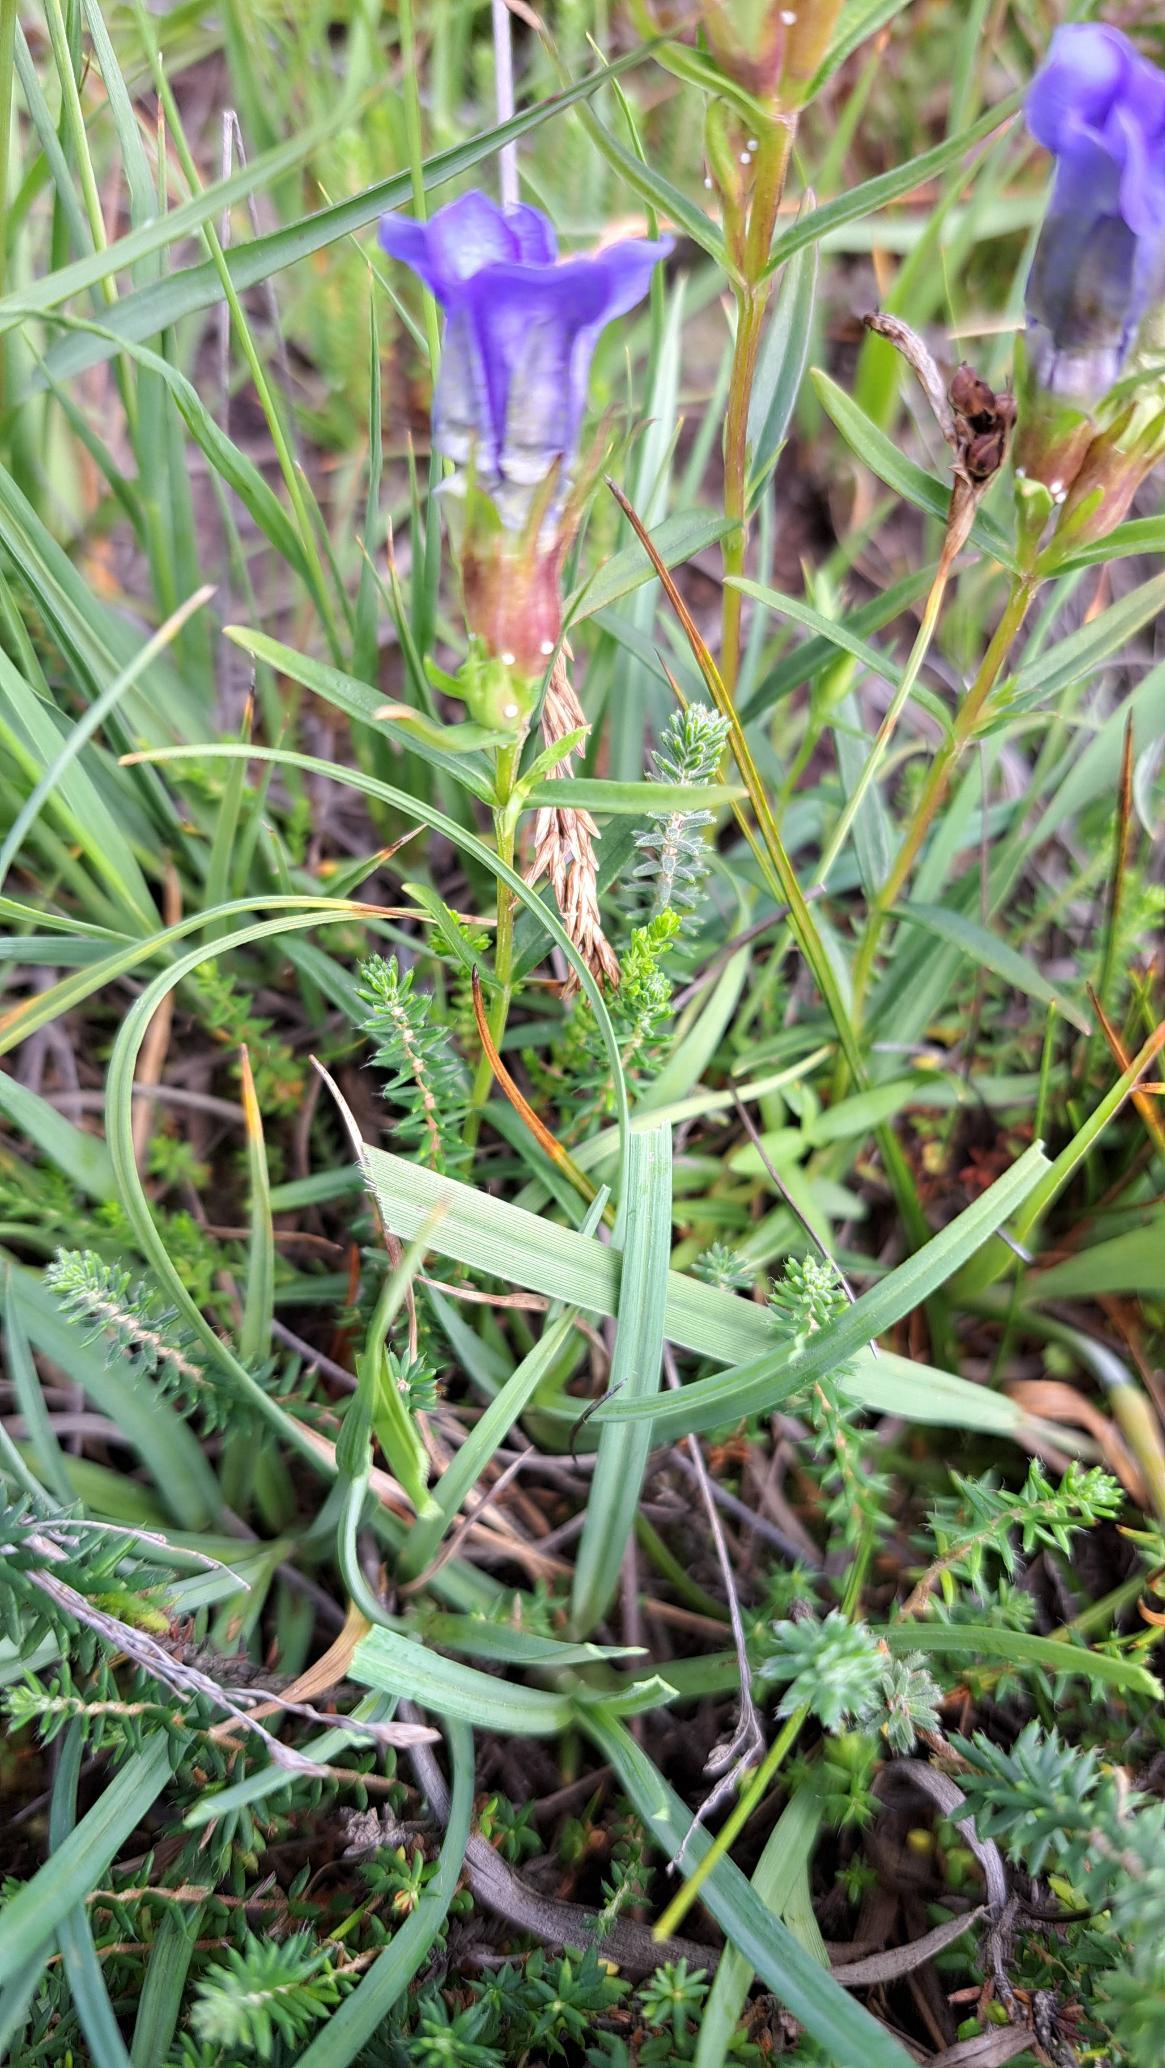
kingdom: Animalia
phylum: Arthropoda
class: Insecta
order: Lepidoptera
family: Lycaenidae
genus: Maculinea
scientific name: Maculinea alcon
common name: Ensianblåfugl
